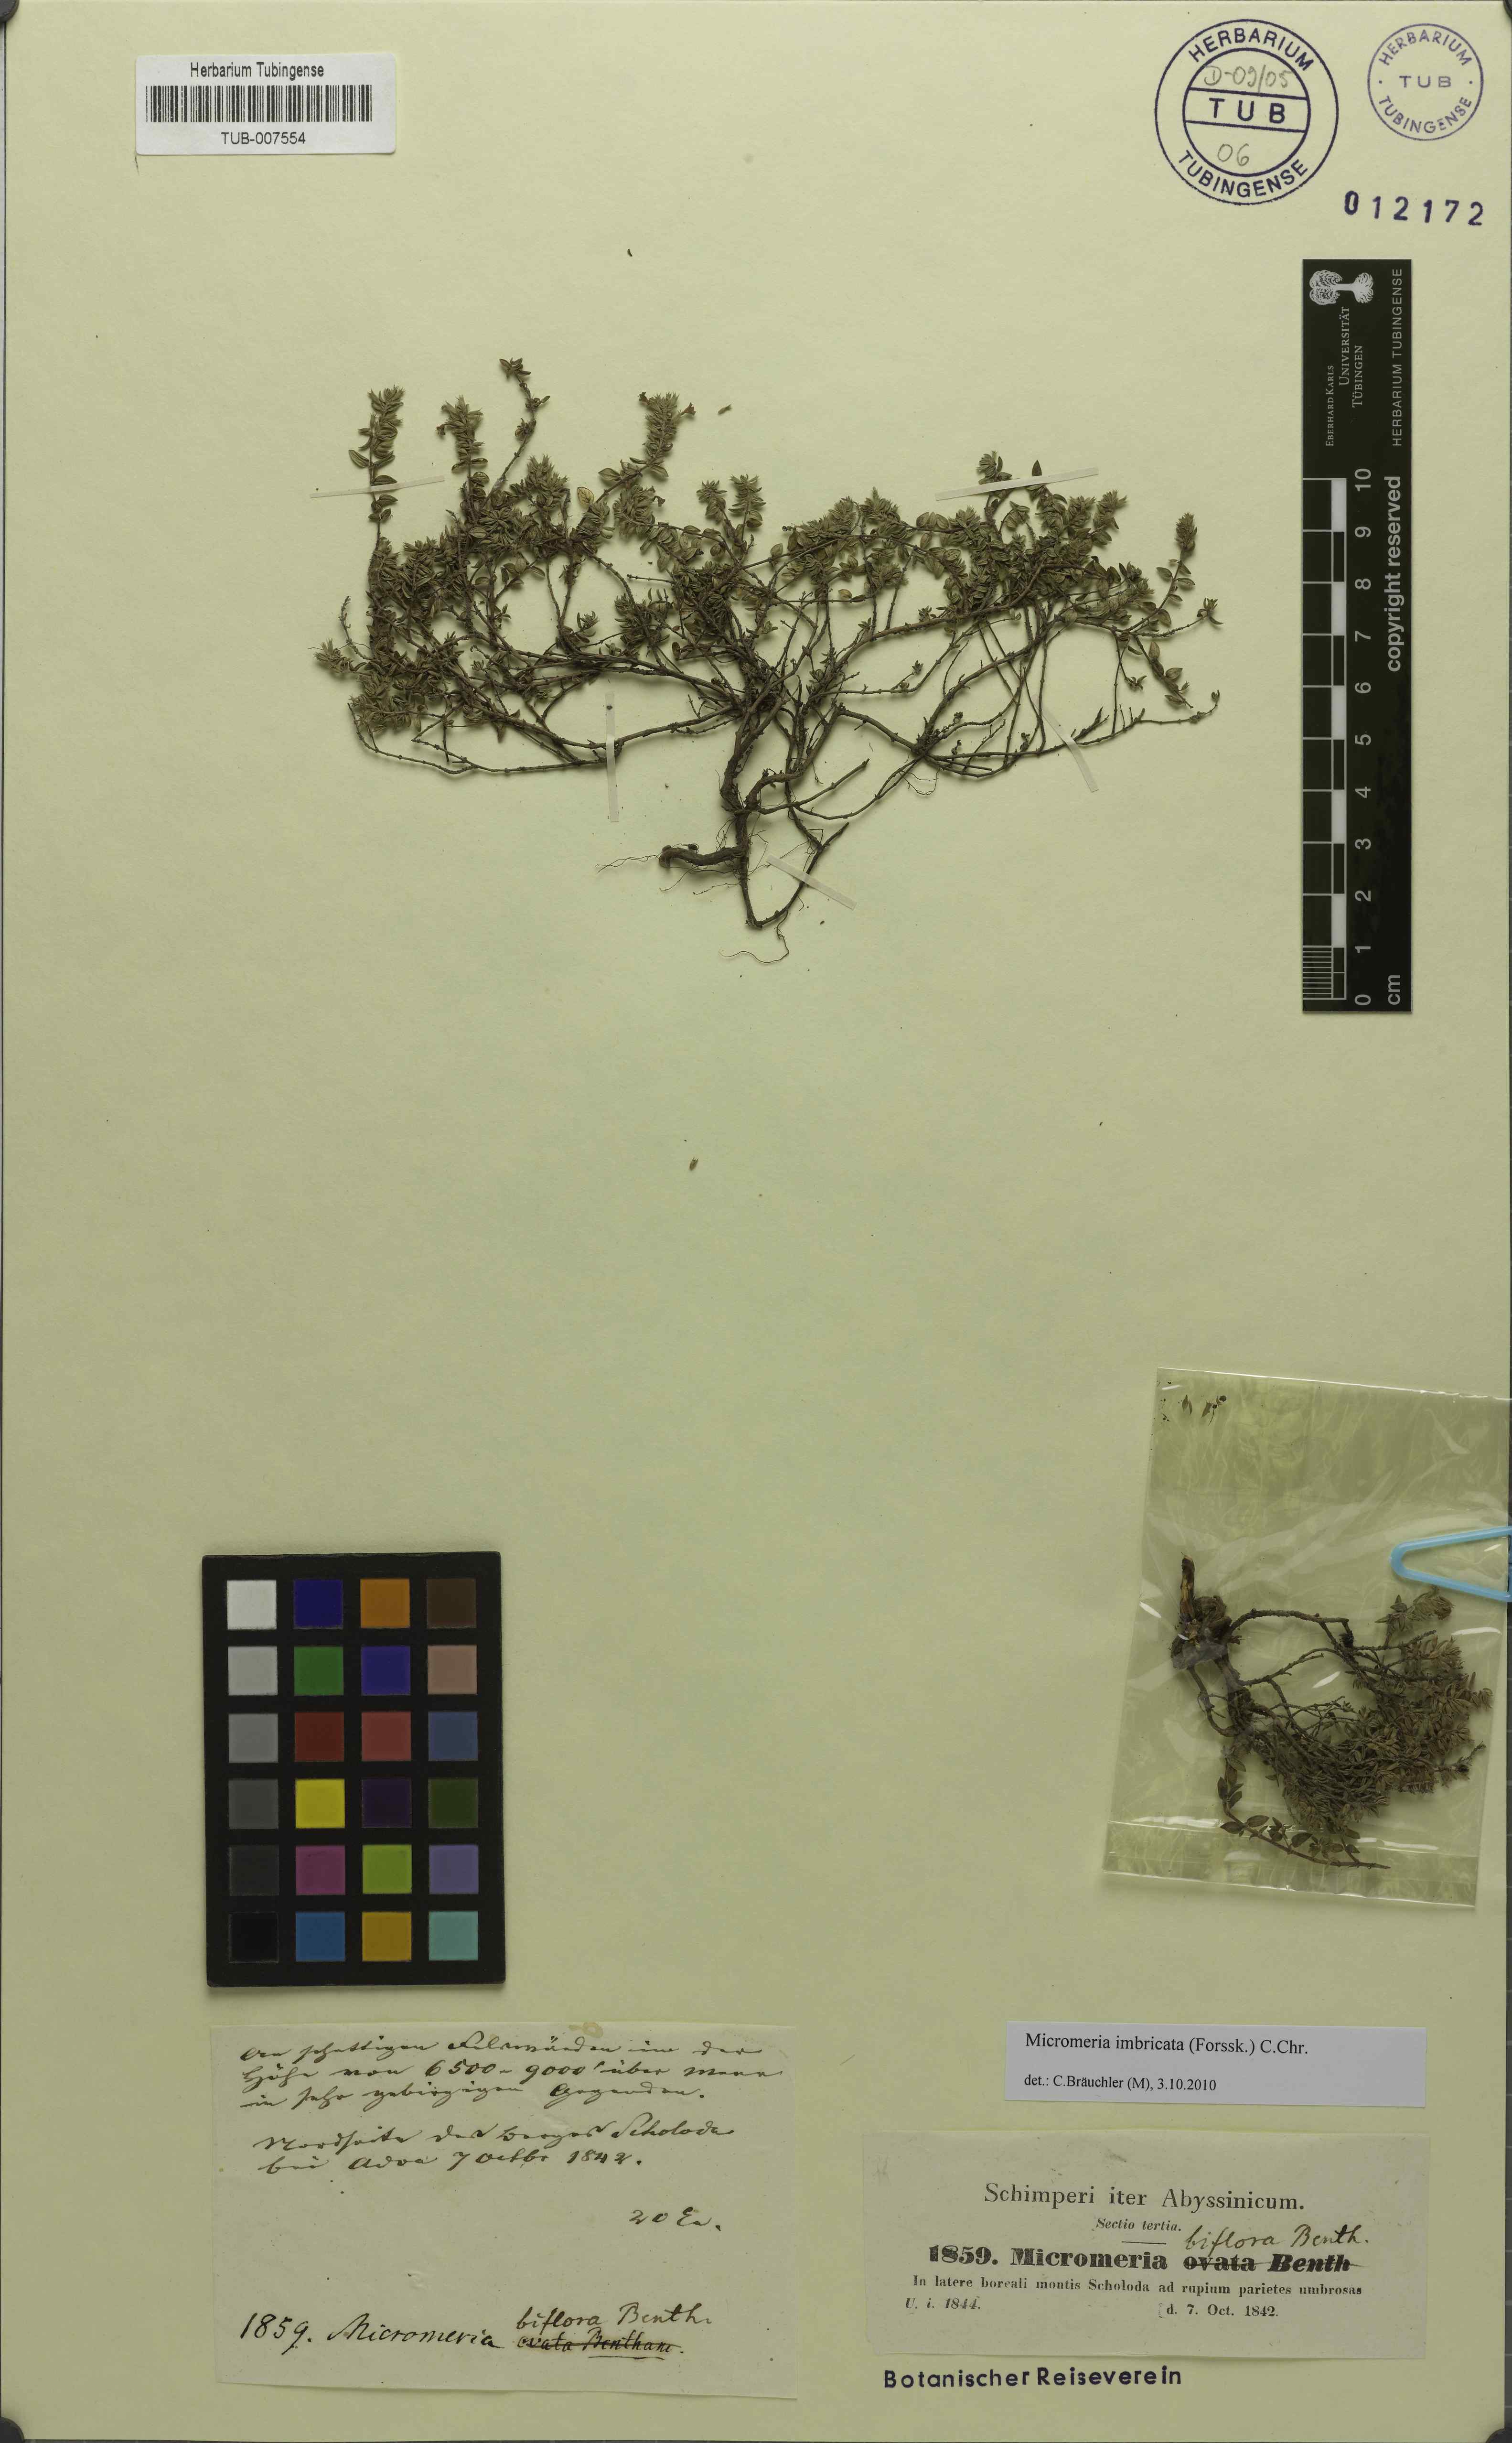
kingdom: Plantae
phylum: Tracheophyta
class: Magnoliopsida
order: Lamiales
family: Lamiaceae
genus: Micromeria
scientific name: Micromeria biflora
